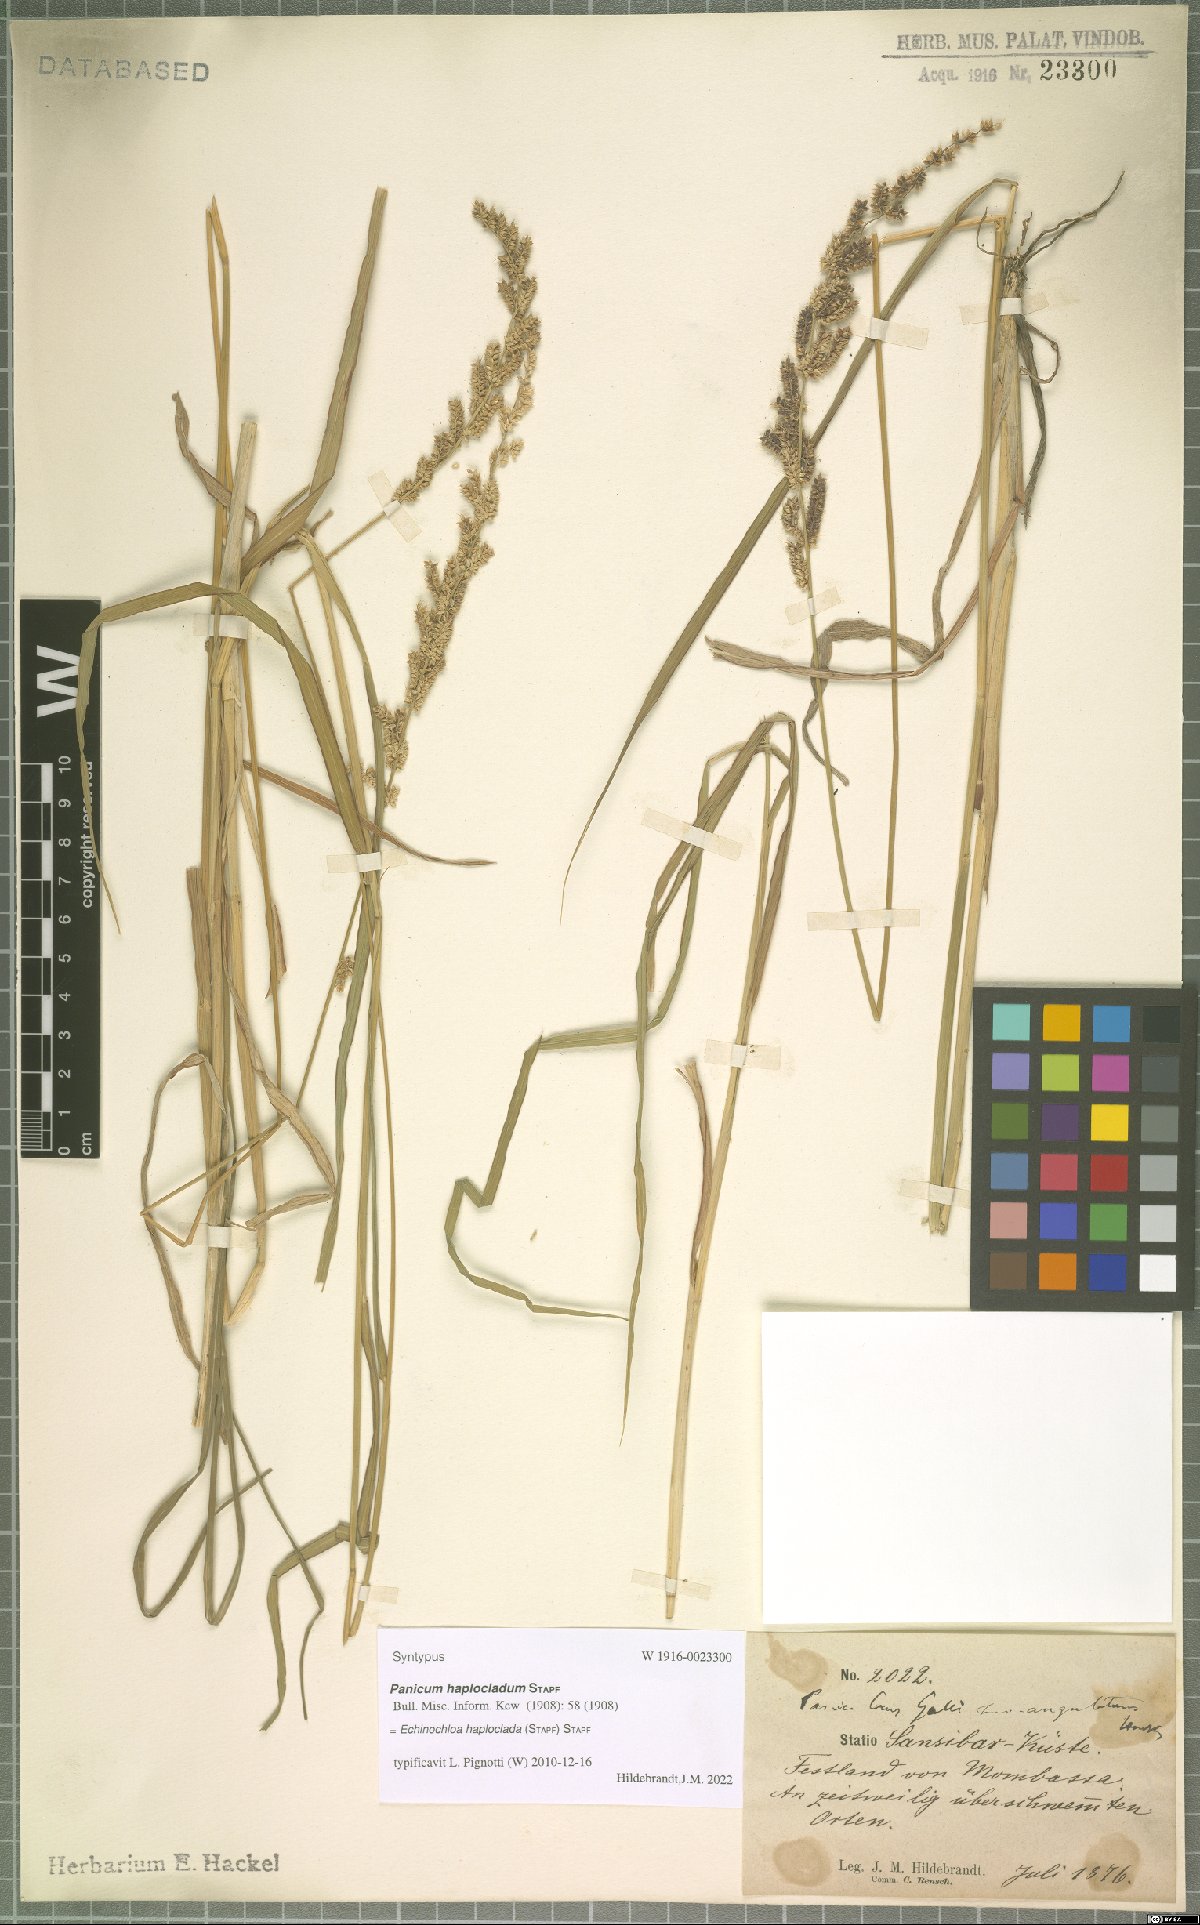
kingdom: Plantae
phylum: Tracheophyta
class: Liliopsida
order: Poales
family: Poaceae
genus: Echinochloa
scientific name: Echinochloa haploclada
